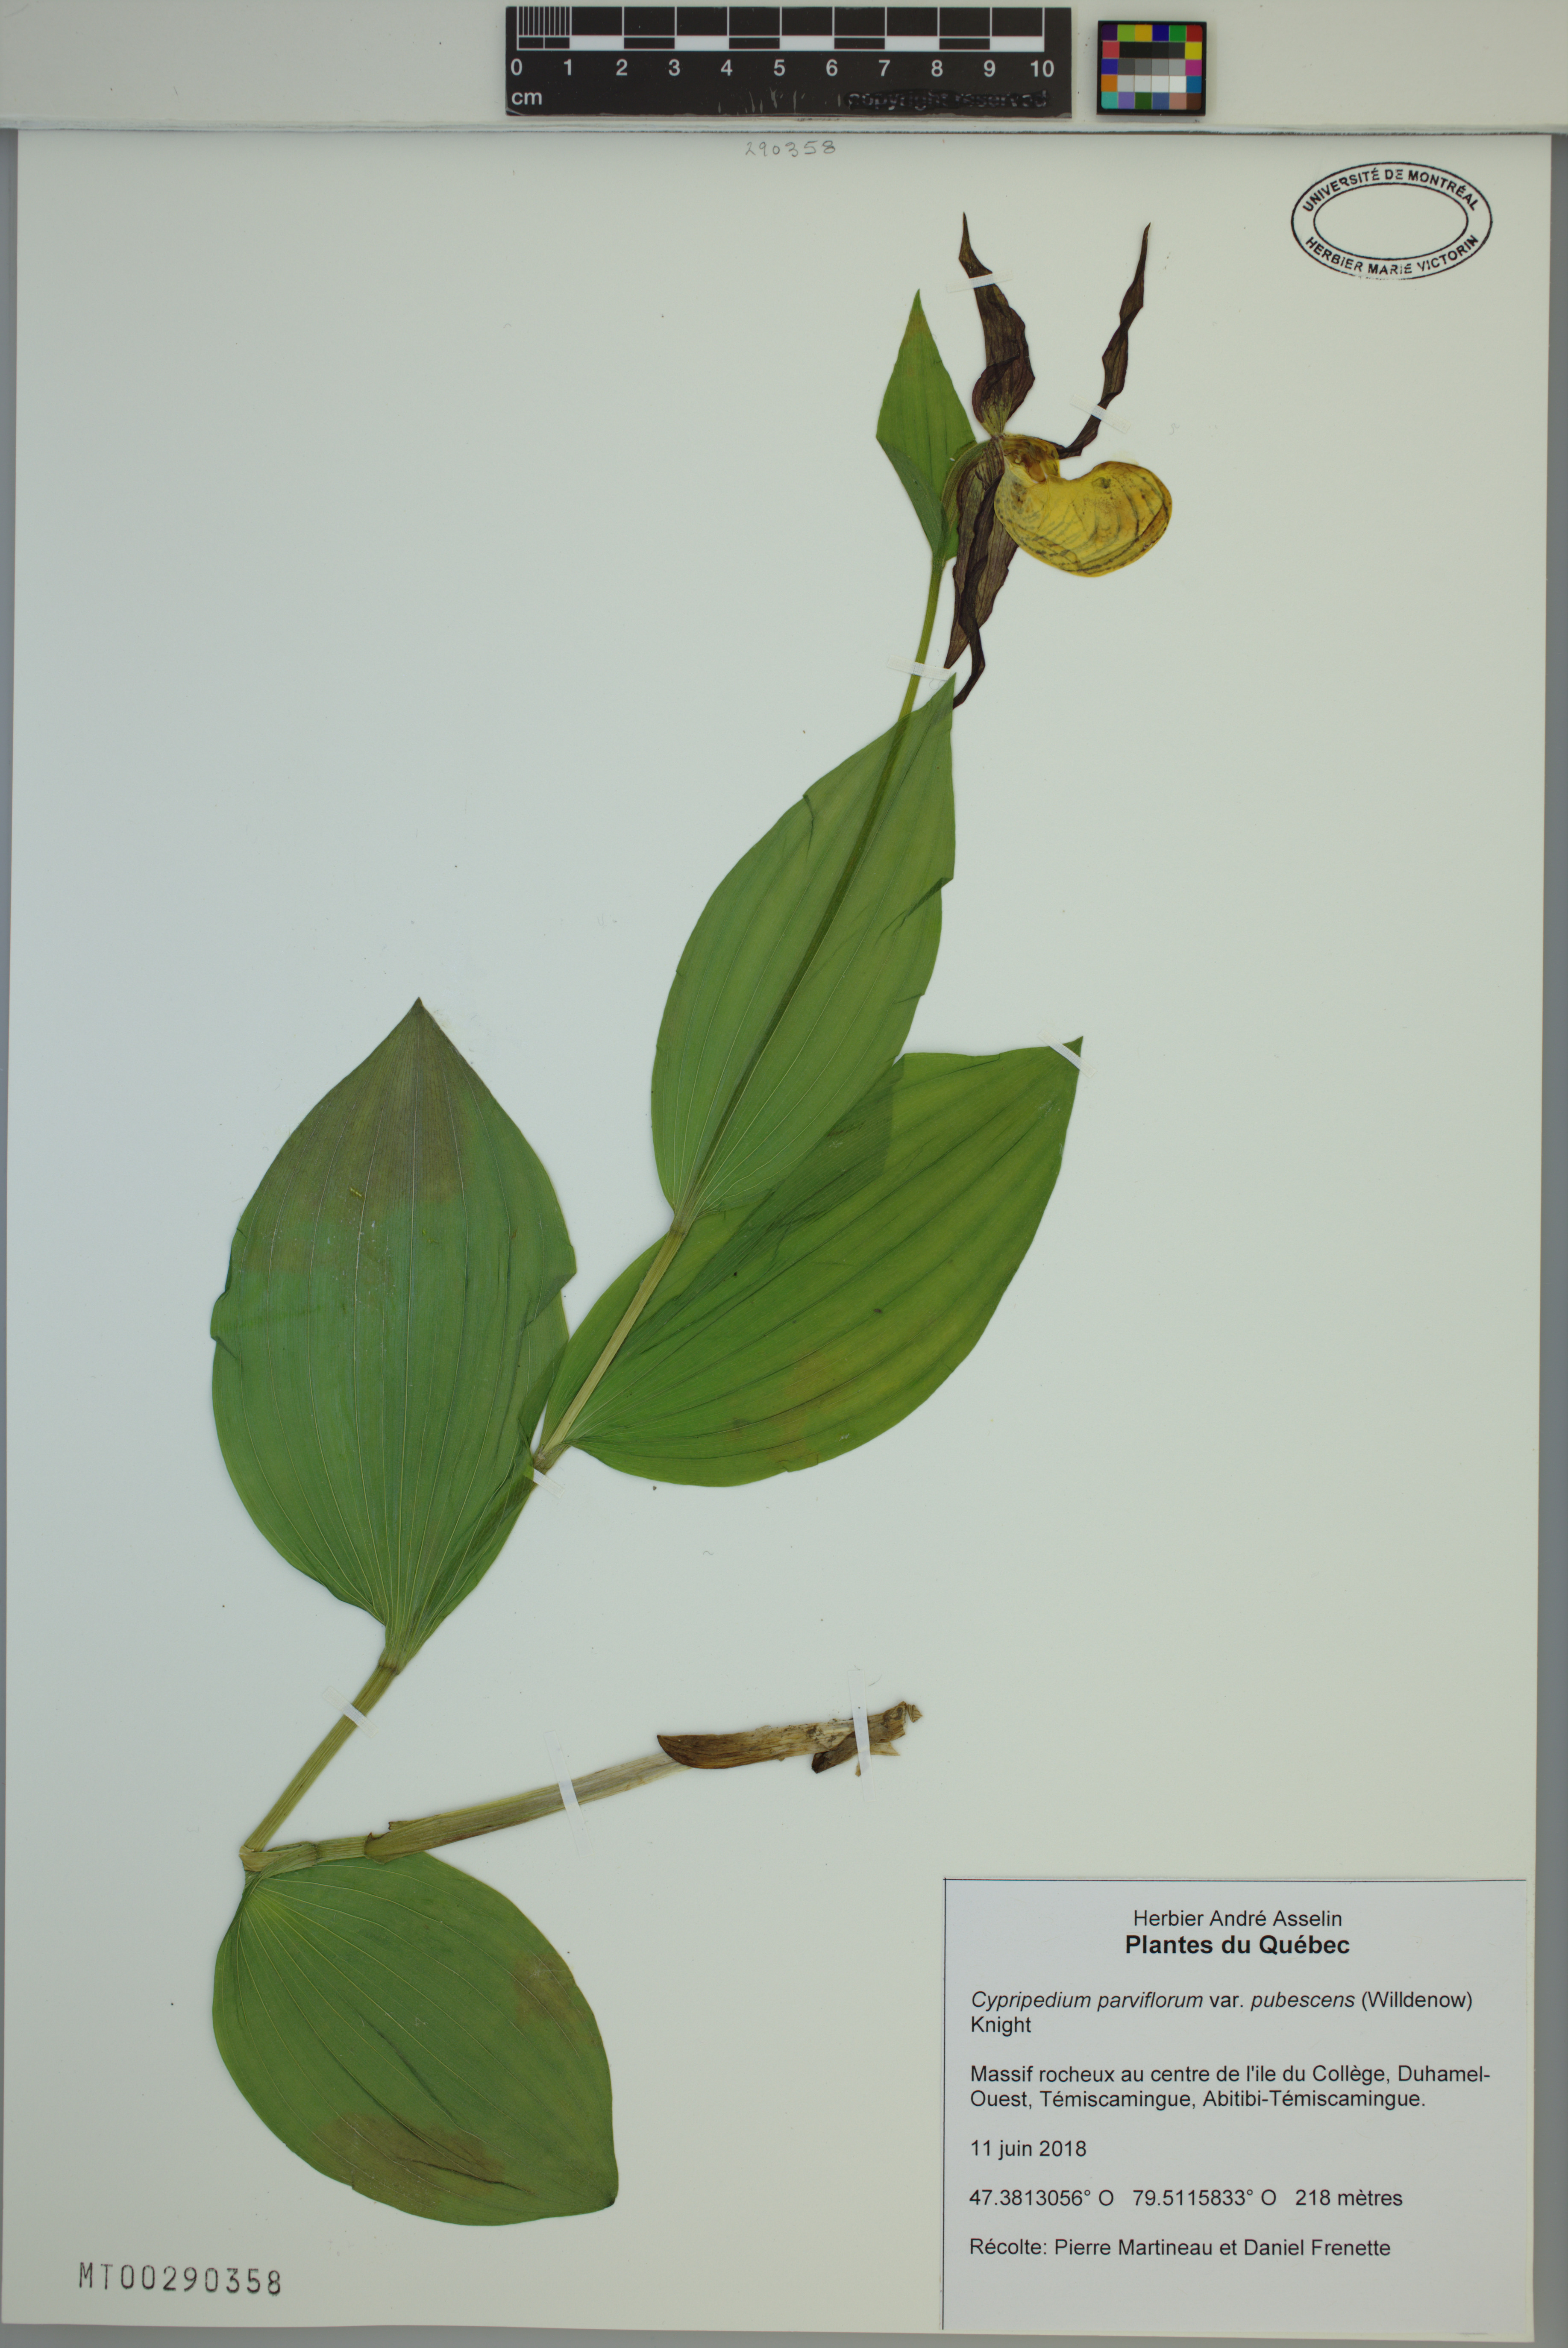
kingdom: Plantae
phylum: Tracheophyta
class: Liliopsida
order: Asparagales
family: Orchidaceae
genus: Cypripedium
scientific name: Cypripedium parviflorum
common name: American yellow lady's-slipper
